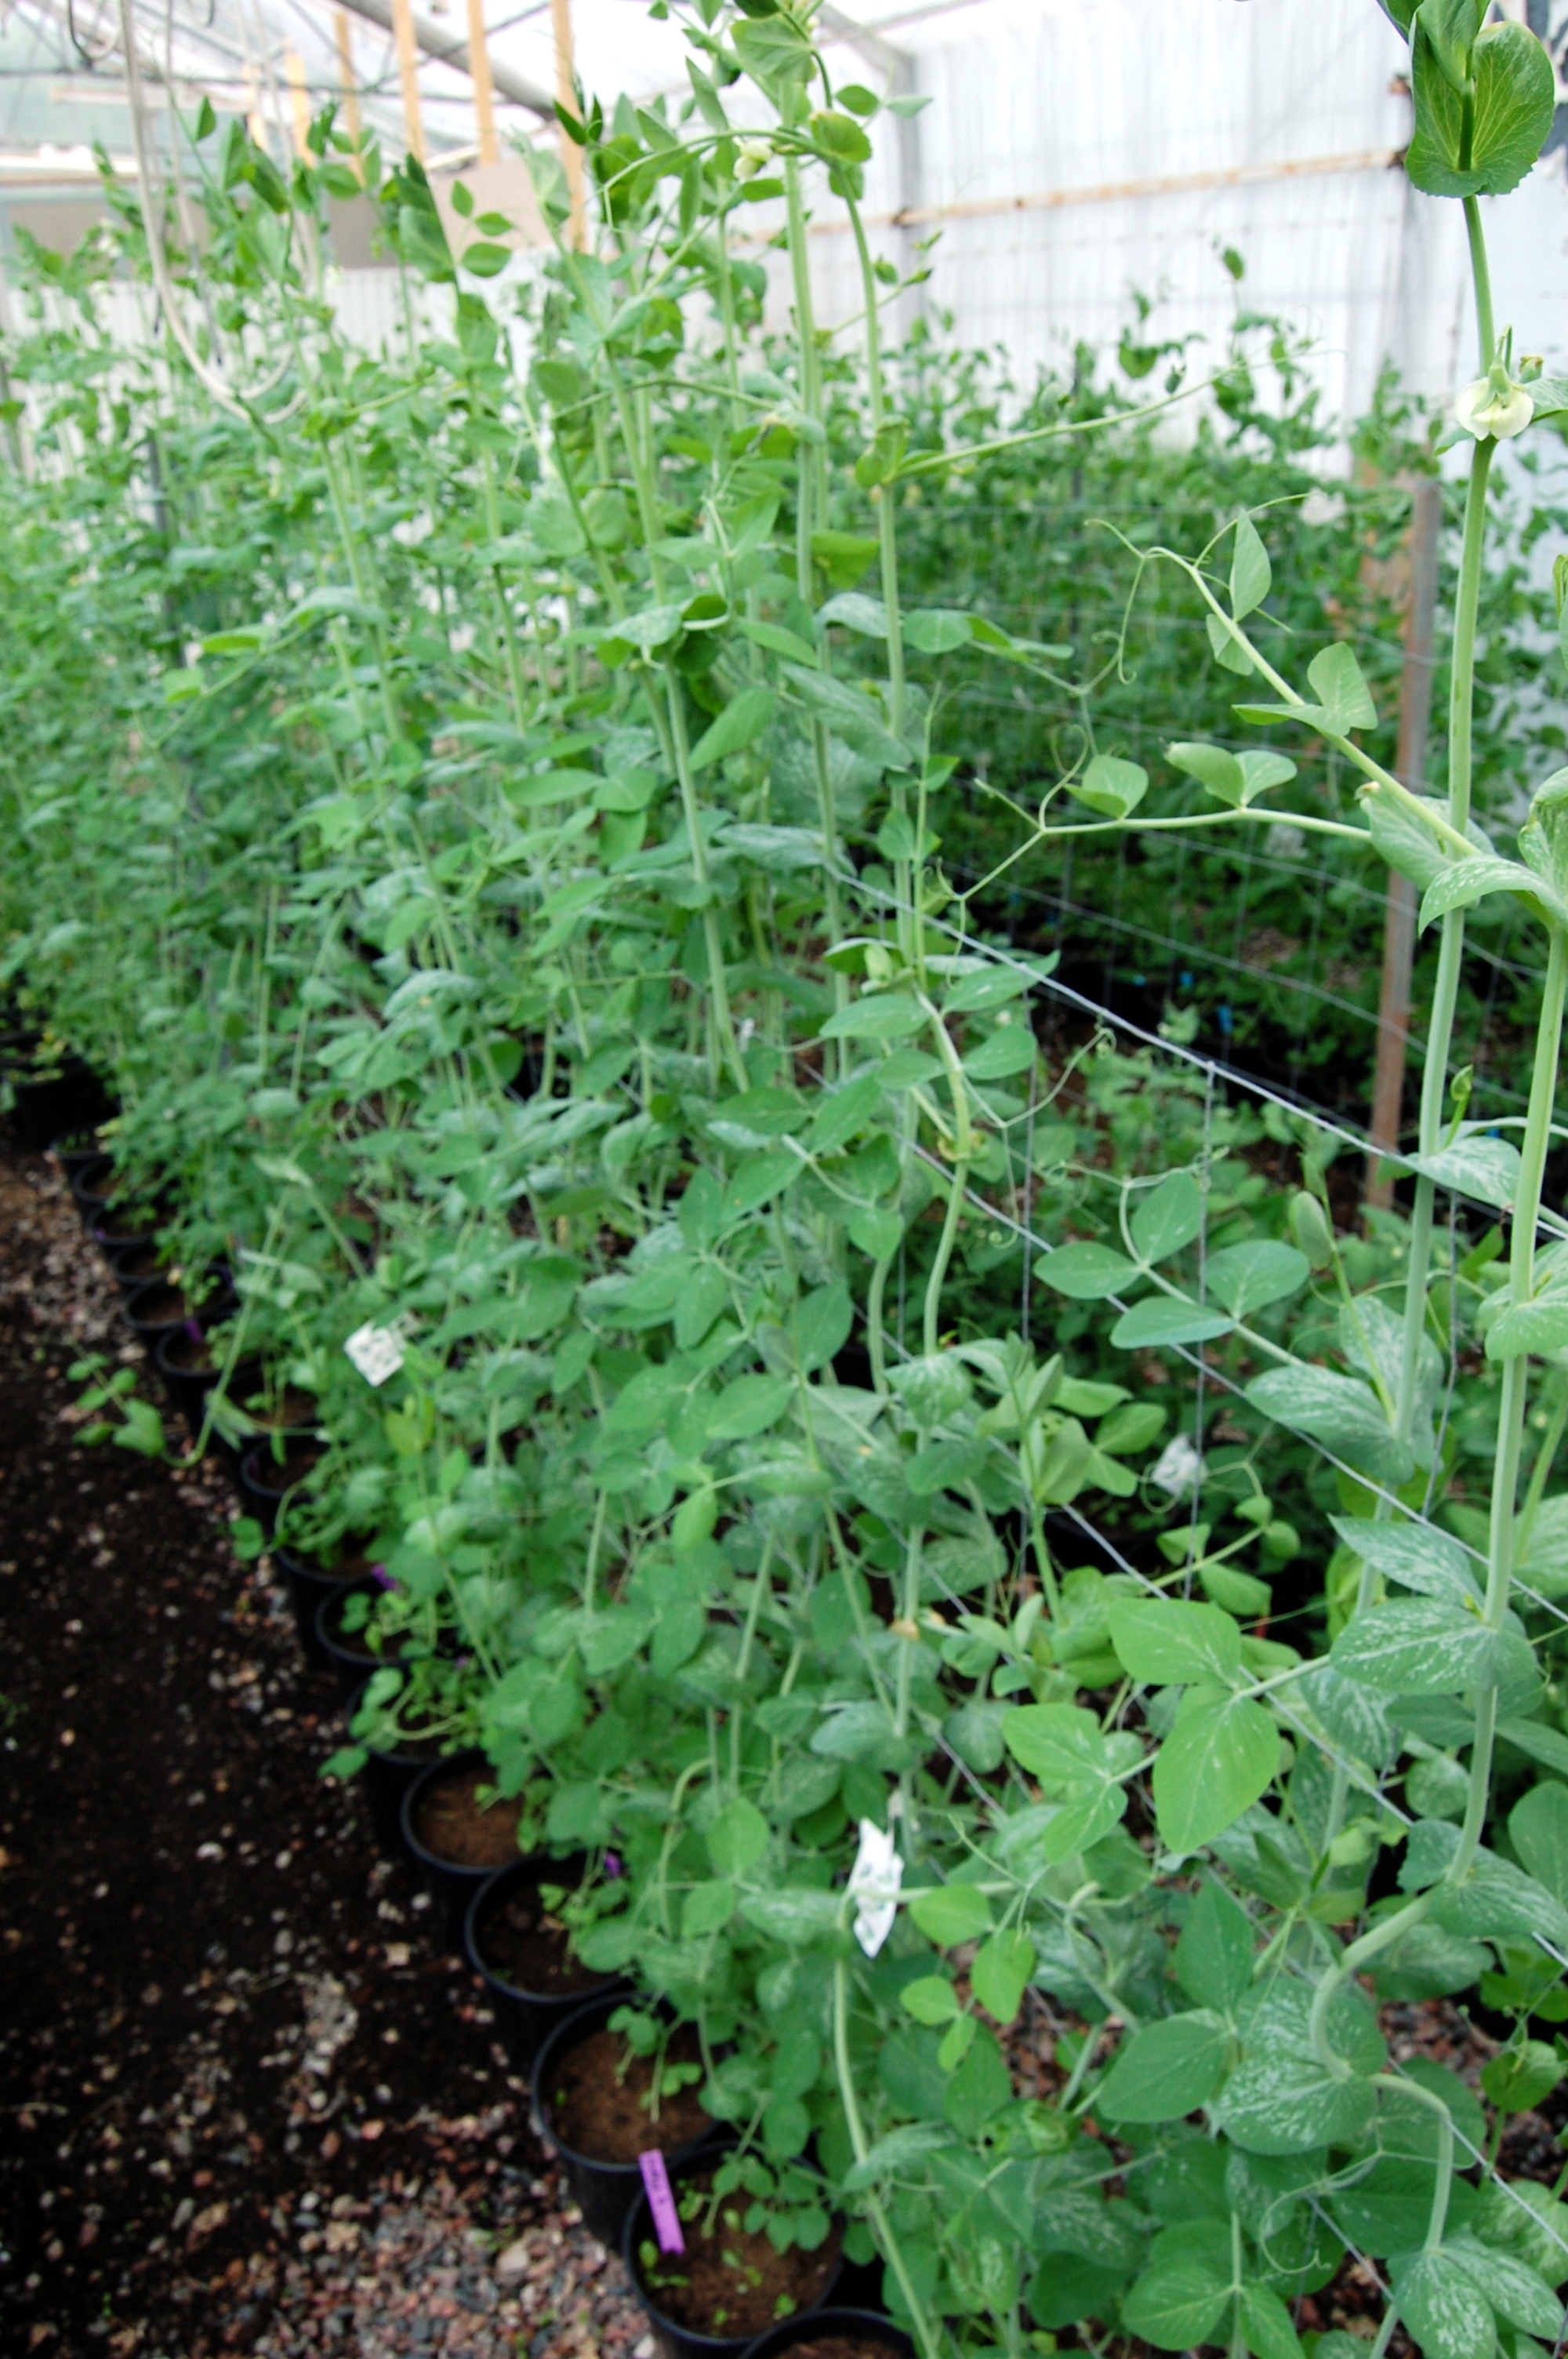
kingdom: Plantae
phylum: Tracheophyta
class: Magnoliopsida
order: Fabales
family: Fabaceae
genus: Lathyrus
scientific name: Lathyrus oleraceus
